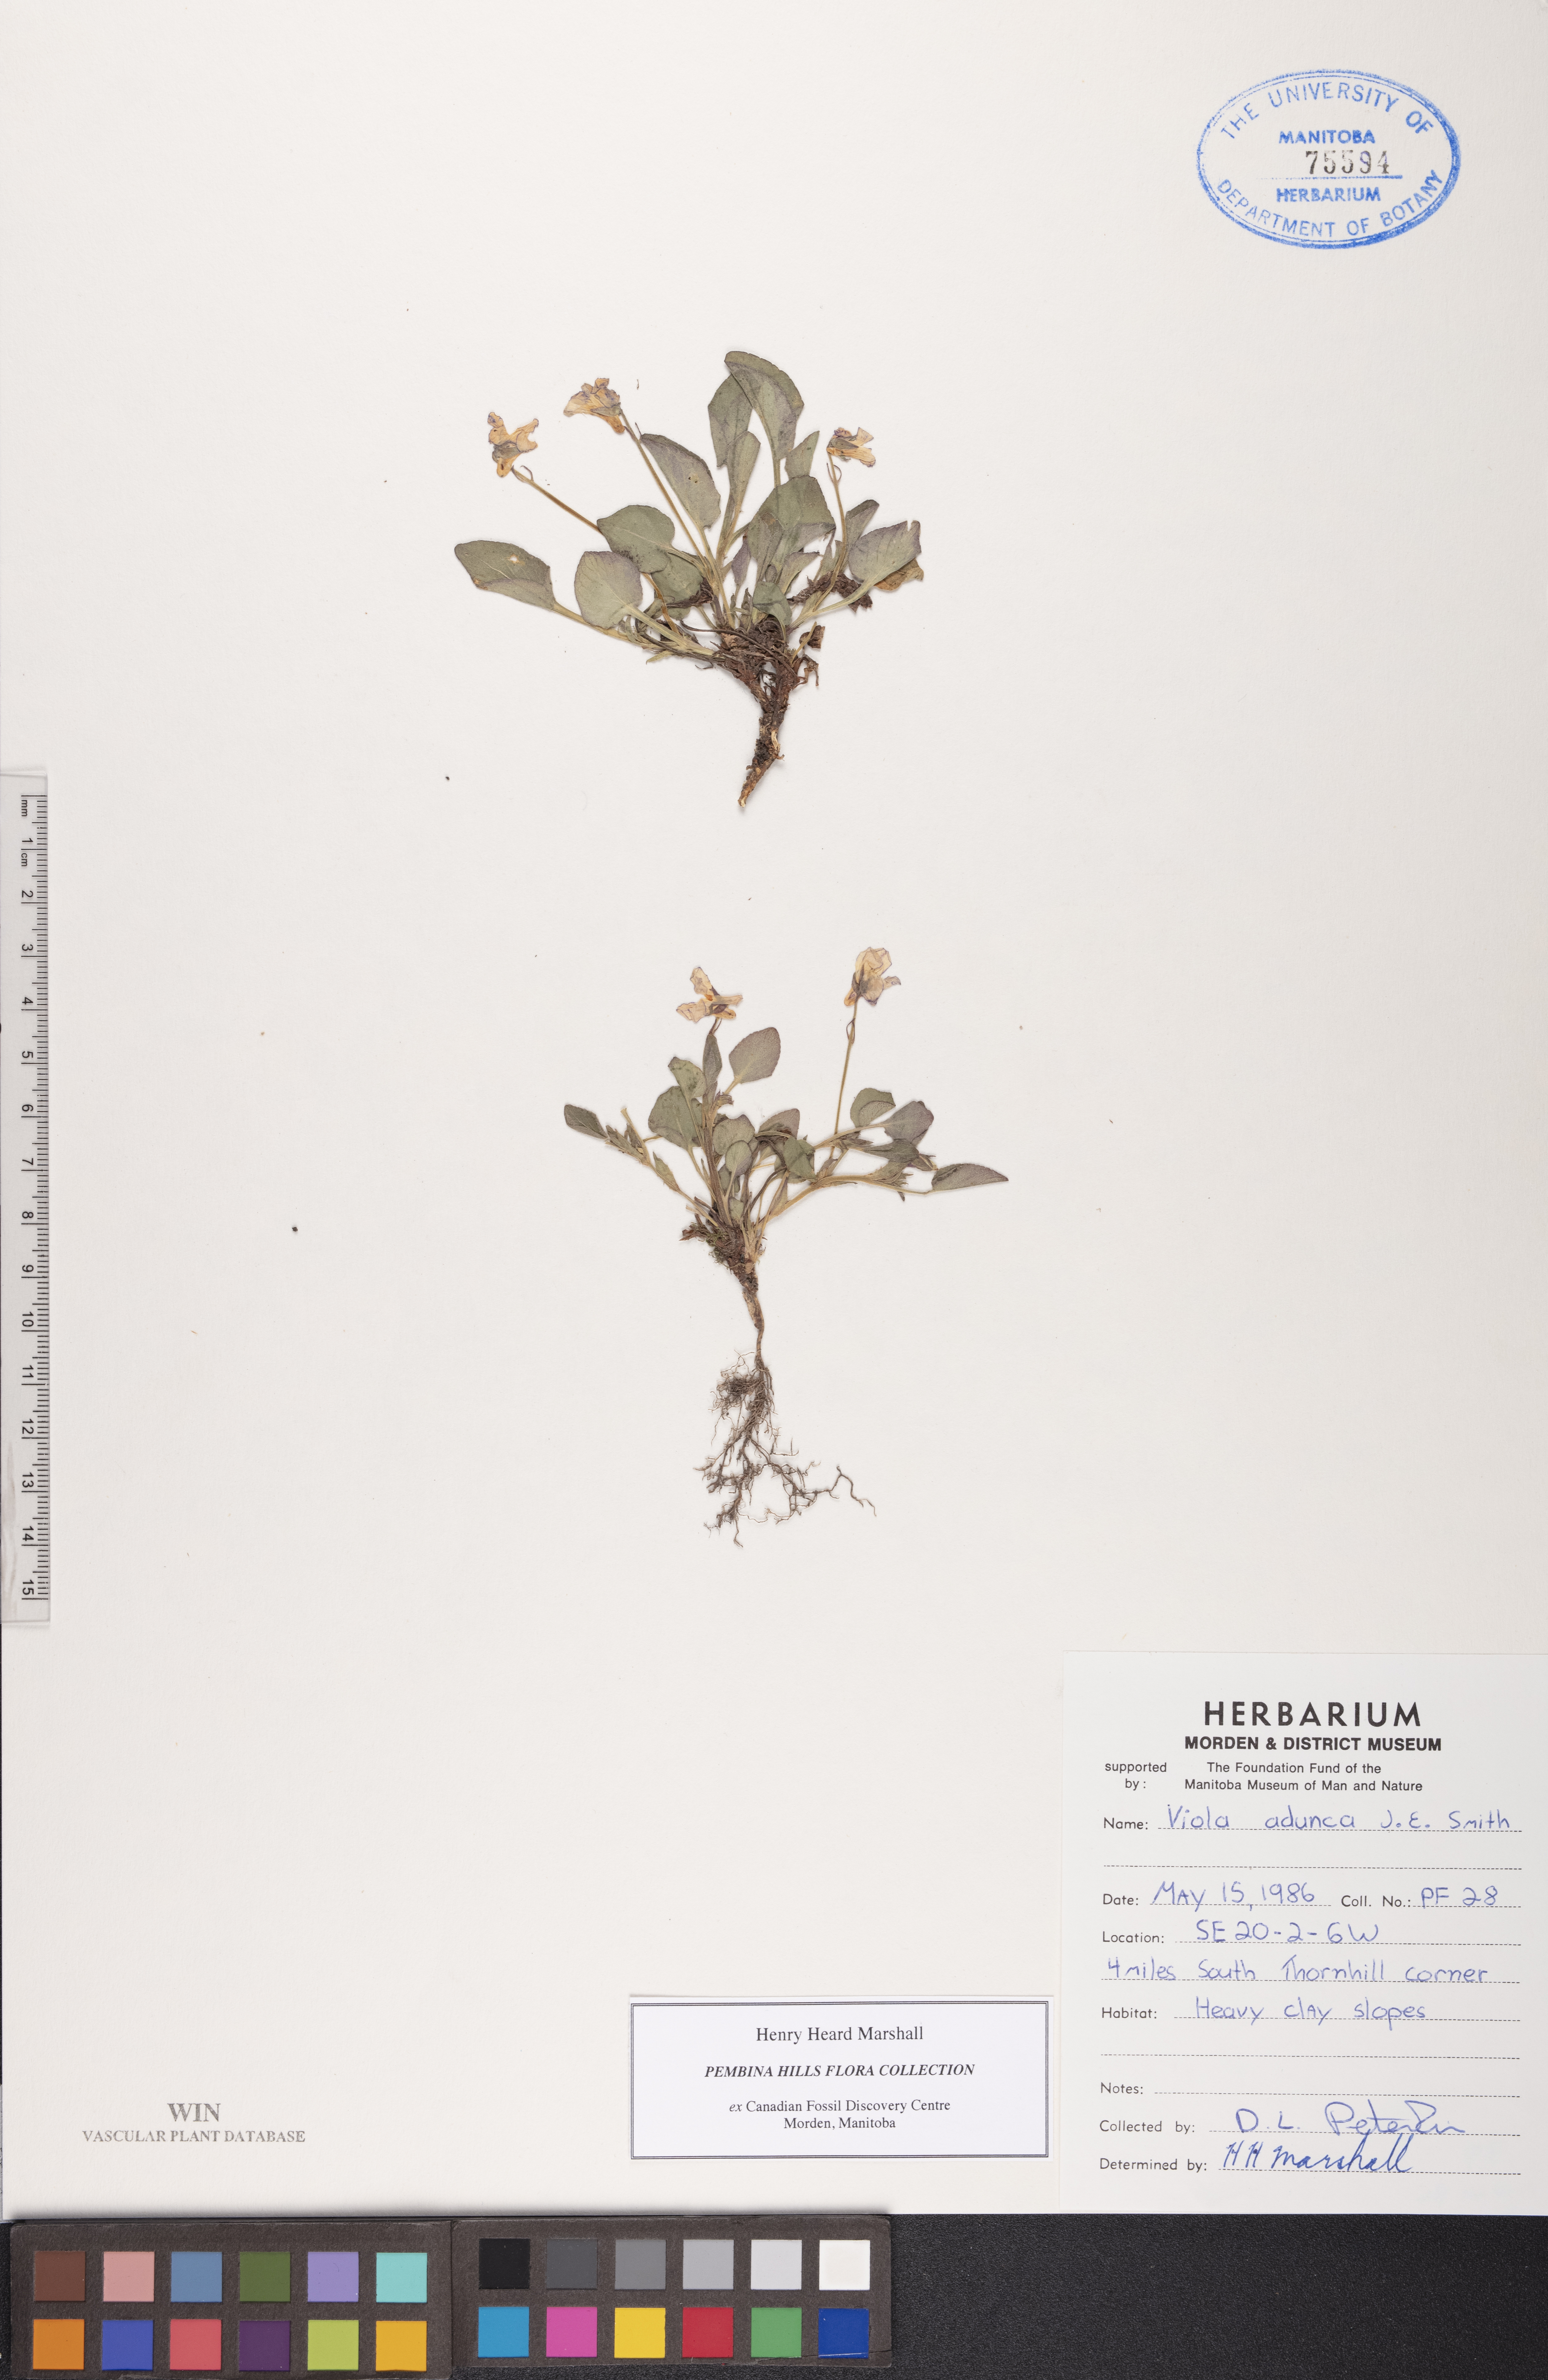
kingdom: Plantae
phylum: Tracheophyta
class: Magnoliopsida
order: Malpighiales
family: Violaceae
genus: Viola
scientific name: Viola adunca
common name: Sand violet
